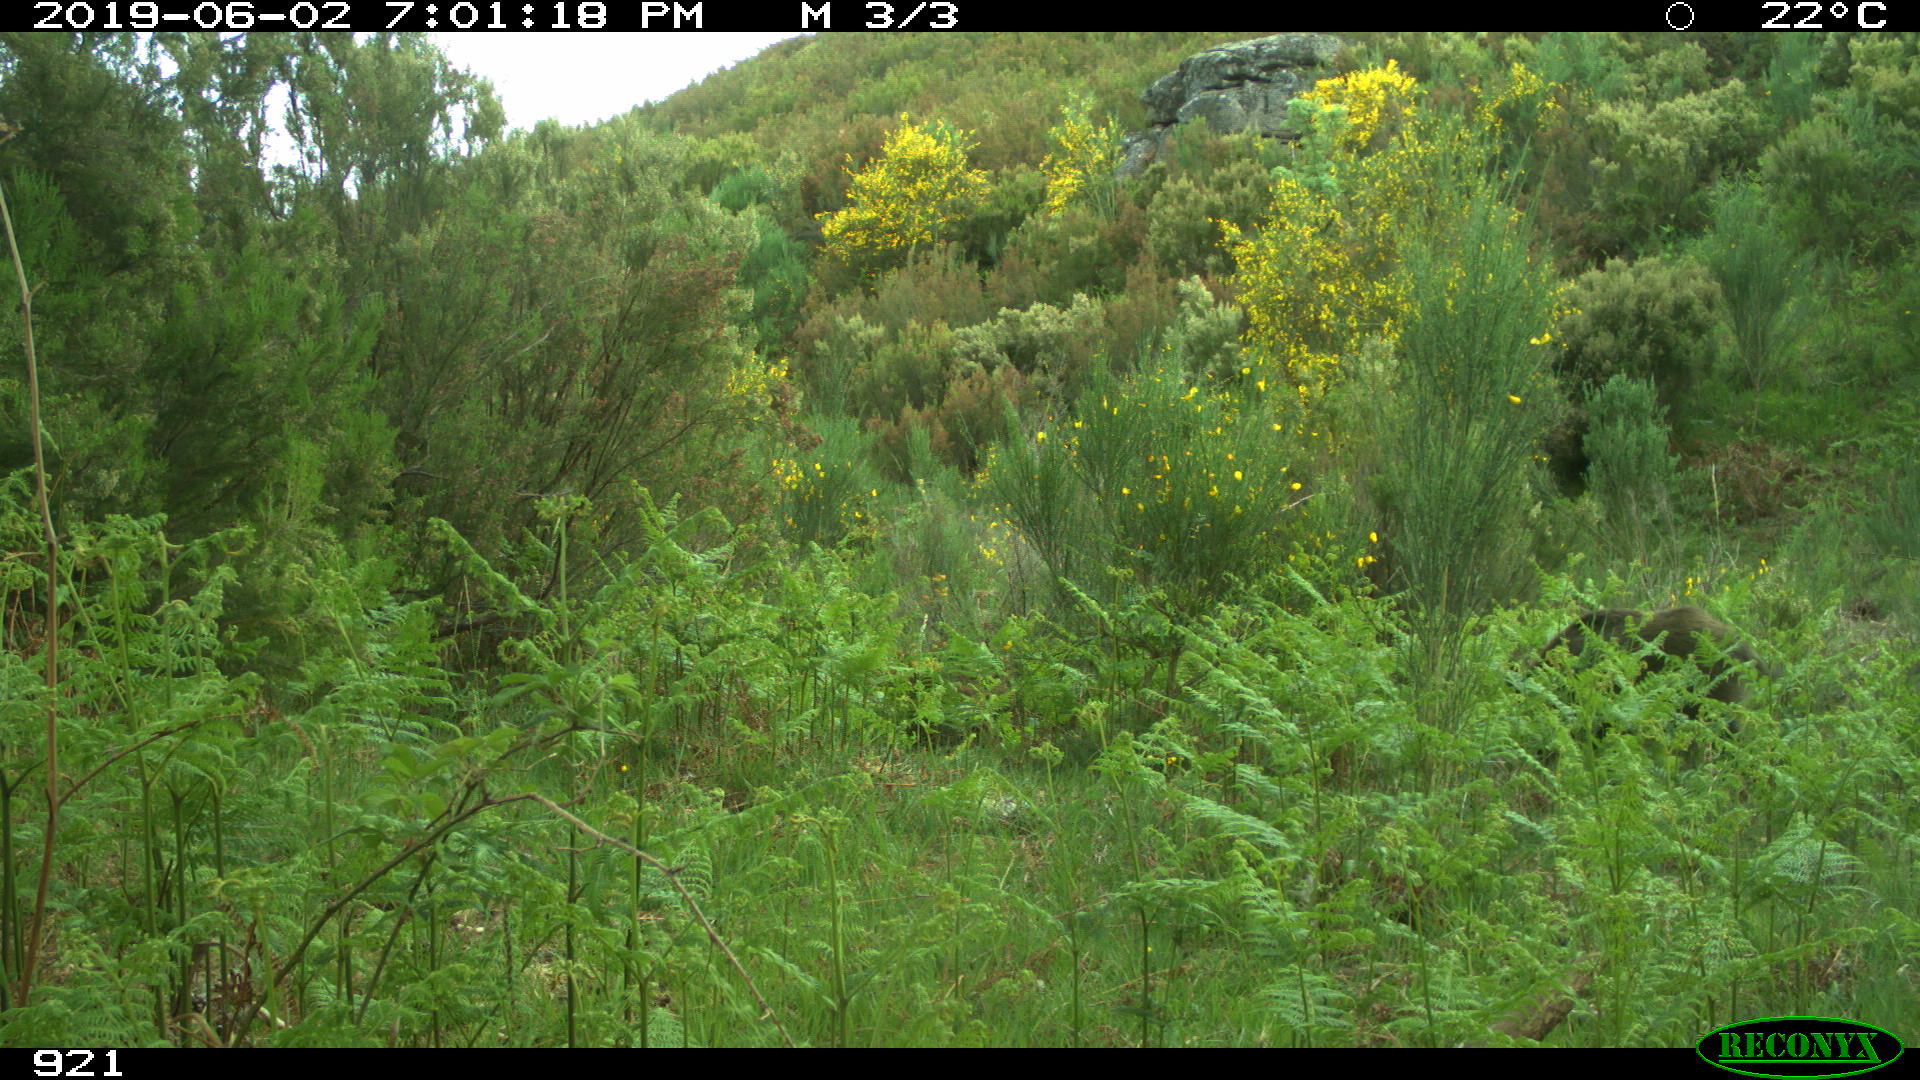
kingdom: Animalia
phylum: Chordata
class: Mammalia
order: Artiodactyla
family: Suidae
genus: Sus
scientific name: Sus scrofa
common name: Wild boar
